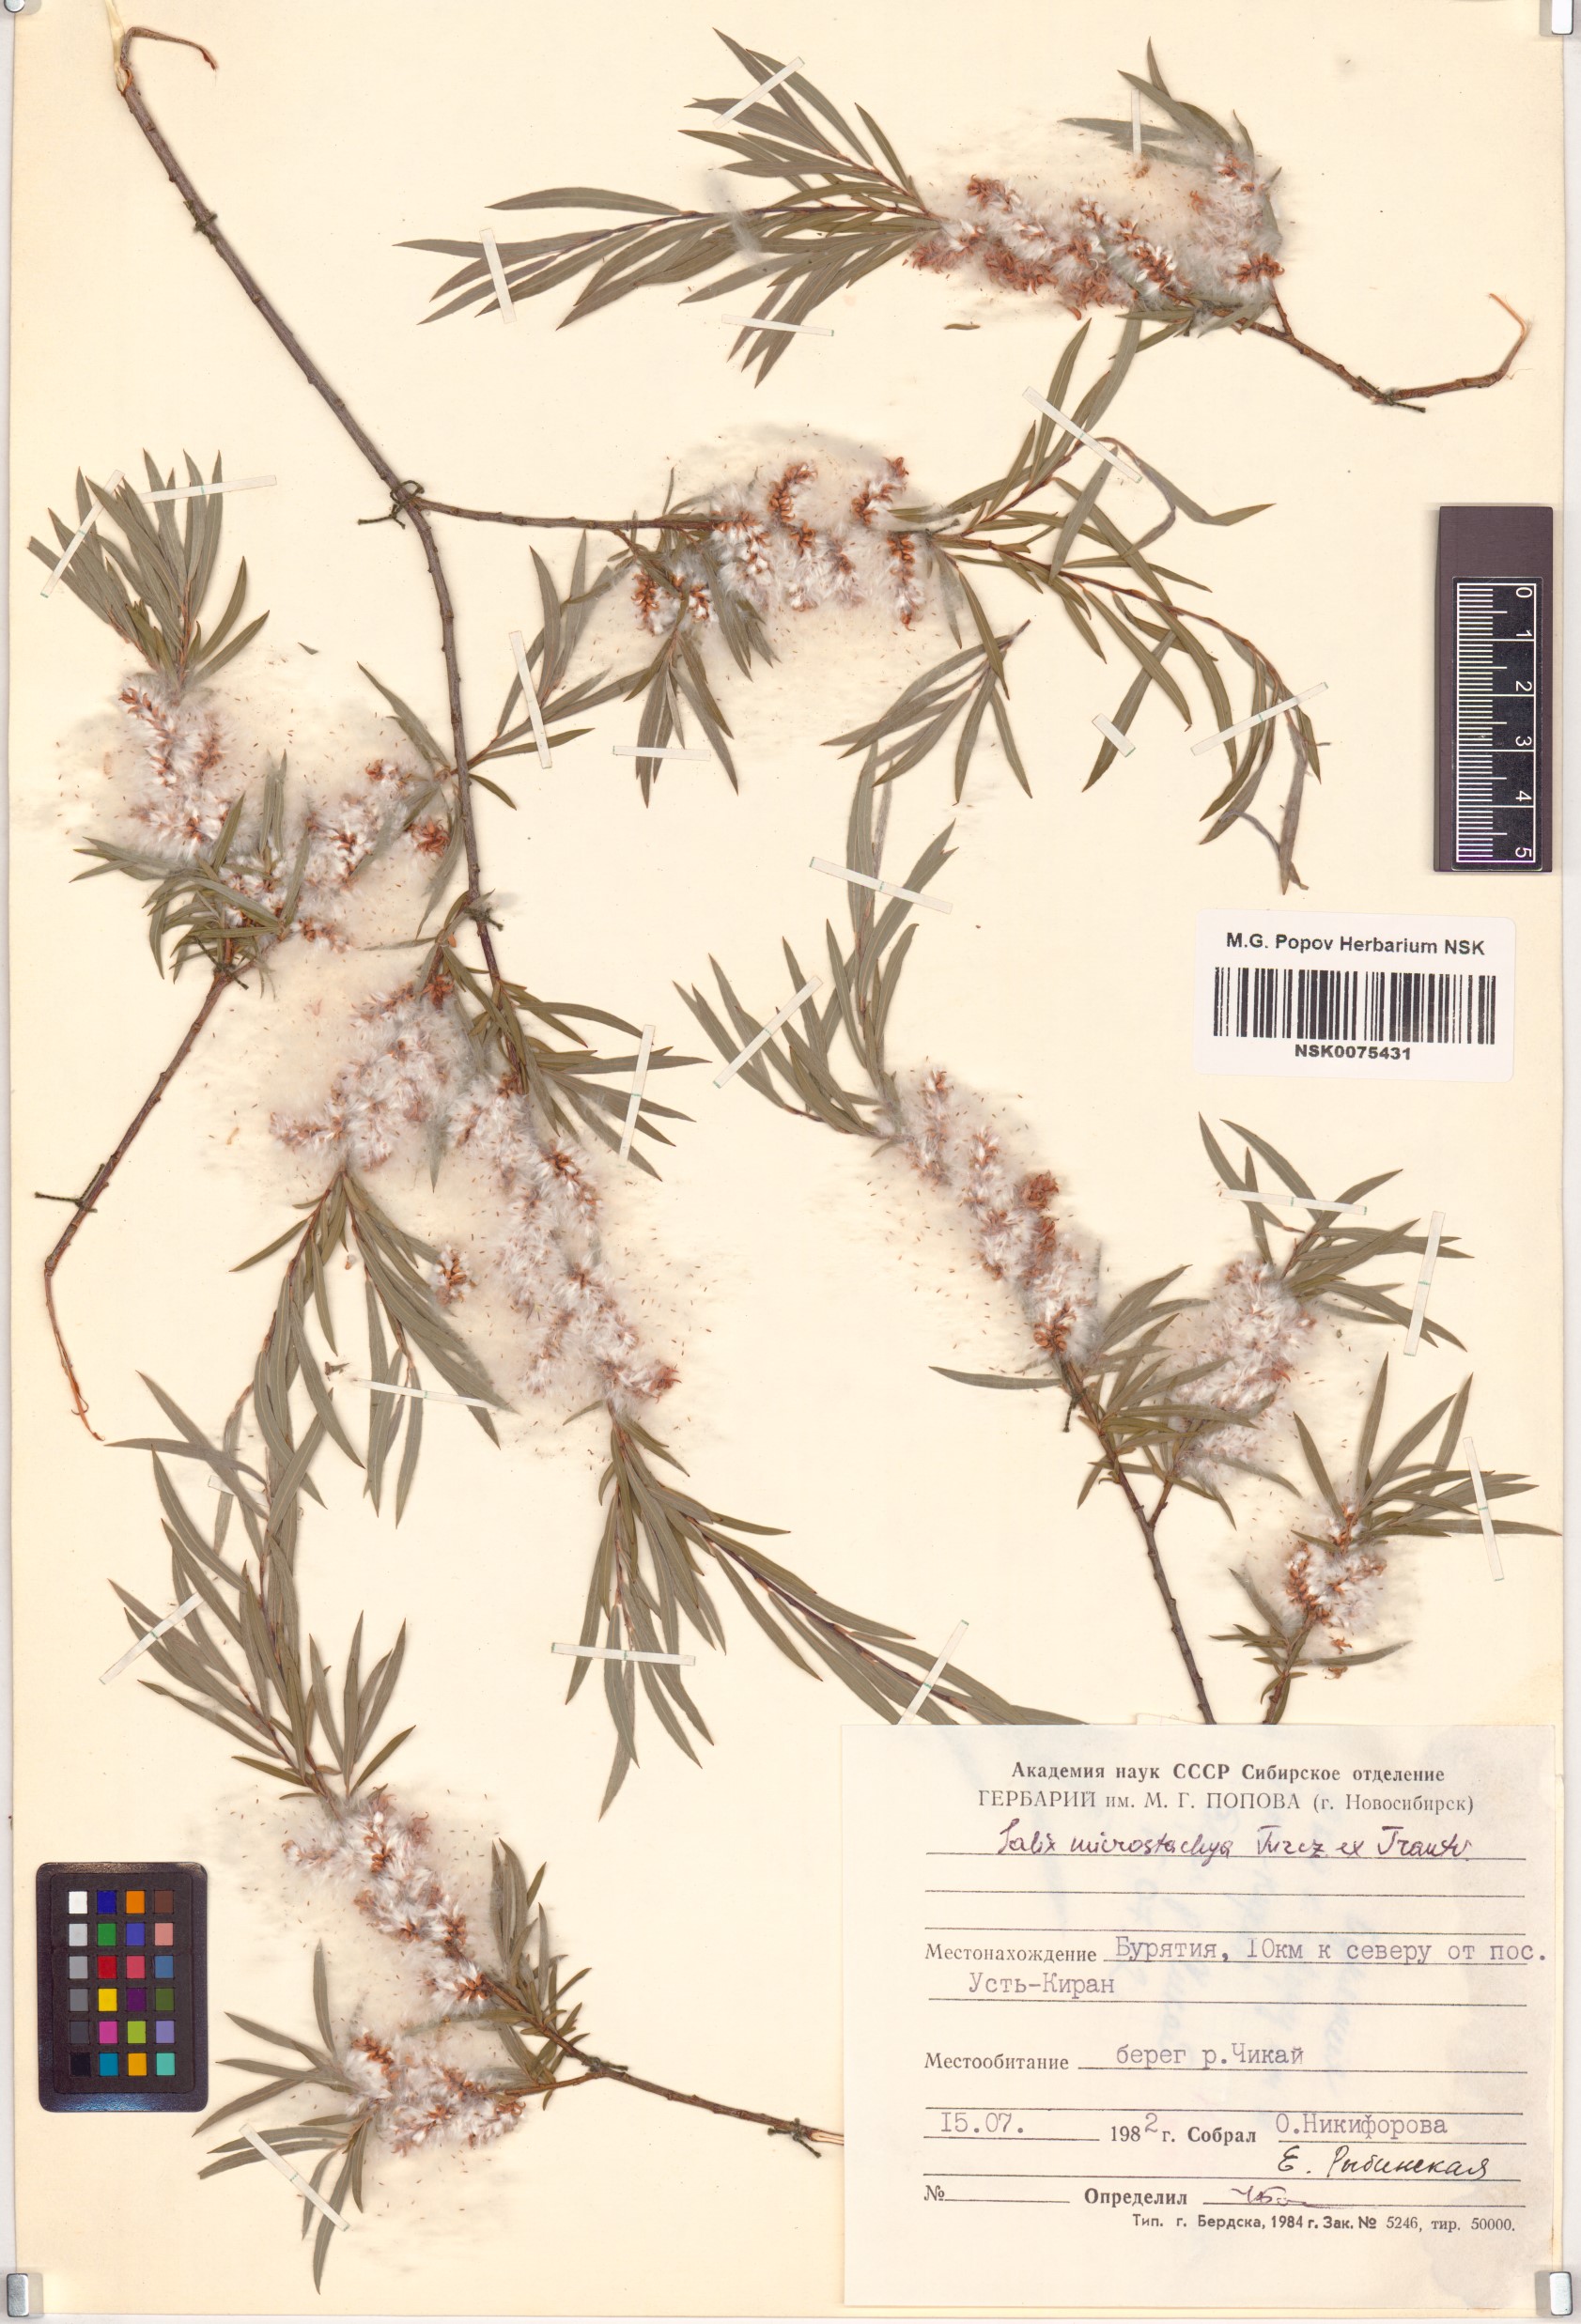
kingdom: Plantae
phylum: Tracheophyta
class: Magnoliopsida
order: Malpighiales
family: Salicaceae
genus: Salix
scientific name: Salix microstachya
